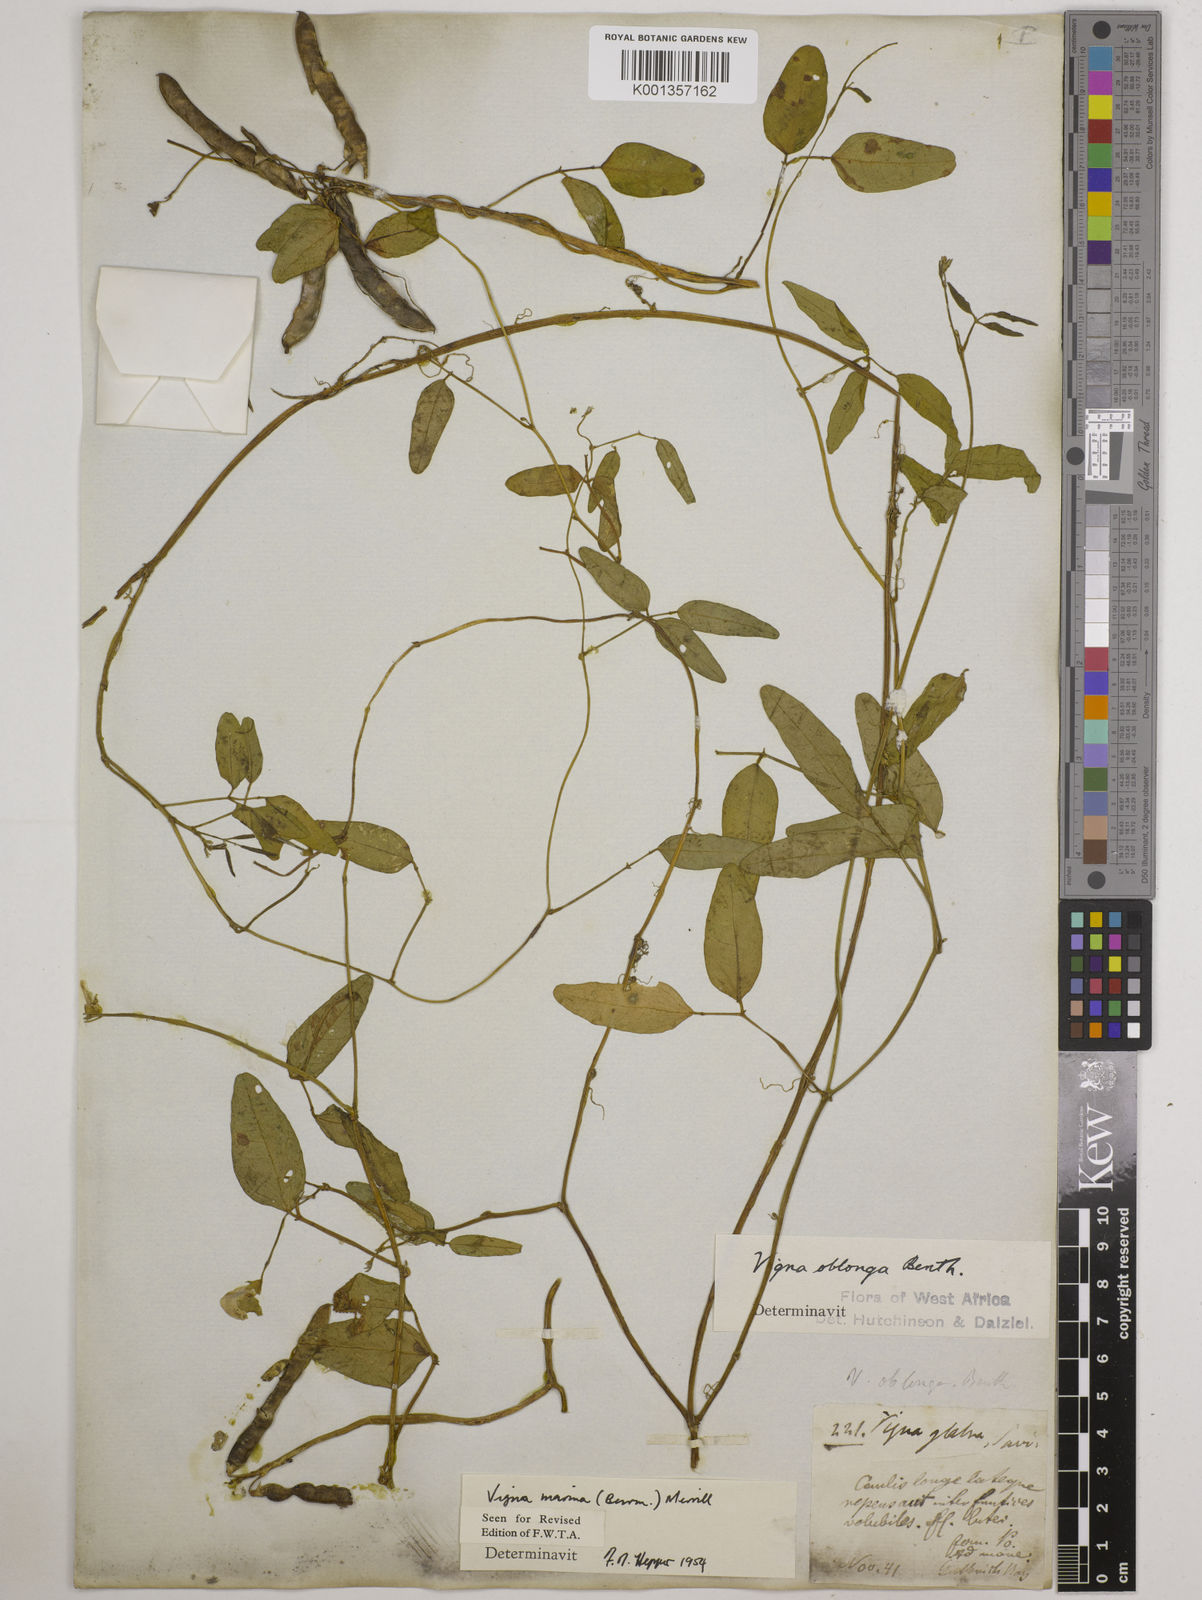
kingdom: Plantae
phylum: Tracheophyta
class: Magnoliopsida
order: Fabales
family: Fabaceae
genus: Vigna
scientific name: Vigna marina
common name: Dune-bean
